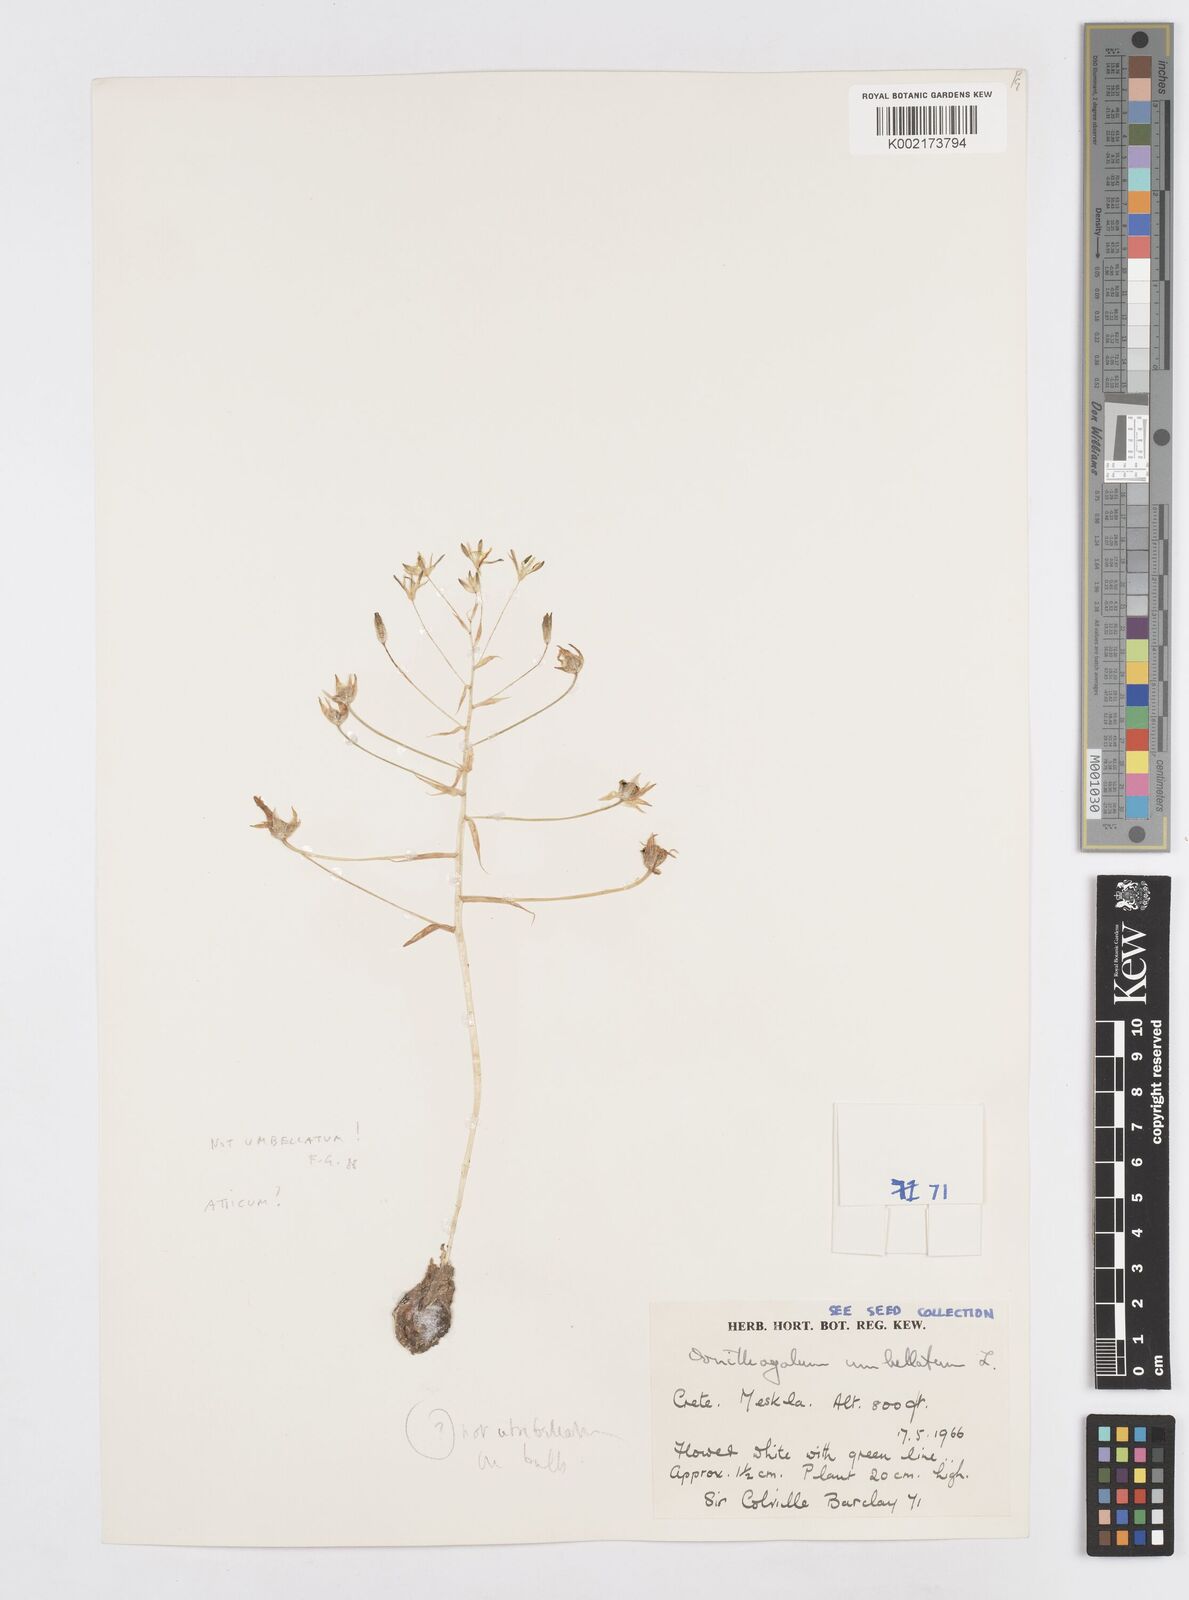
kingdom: Plantae
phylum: Tracheophyta
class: Liliopsida
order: Asparagales
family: Asparagaceae
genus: Ornithogalum
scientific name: Ornithogalum umbellatum
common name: Garden star-of-bethlehem
